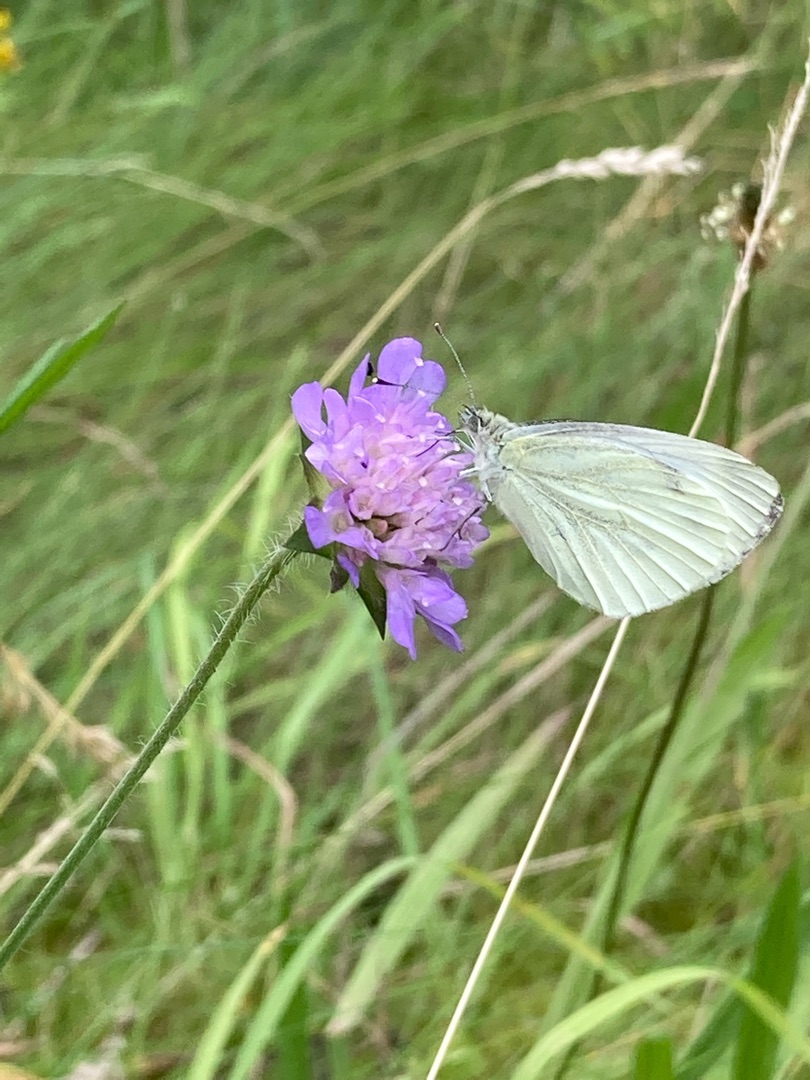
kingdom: Animalia
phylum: Arthropoda
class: Insecta
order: Lepidoptera
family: Pieridae
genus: Pieris
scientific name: Pieris napi
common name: Grønåret kålsommerfugl
